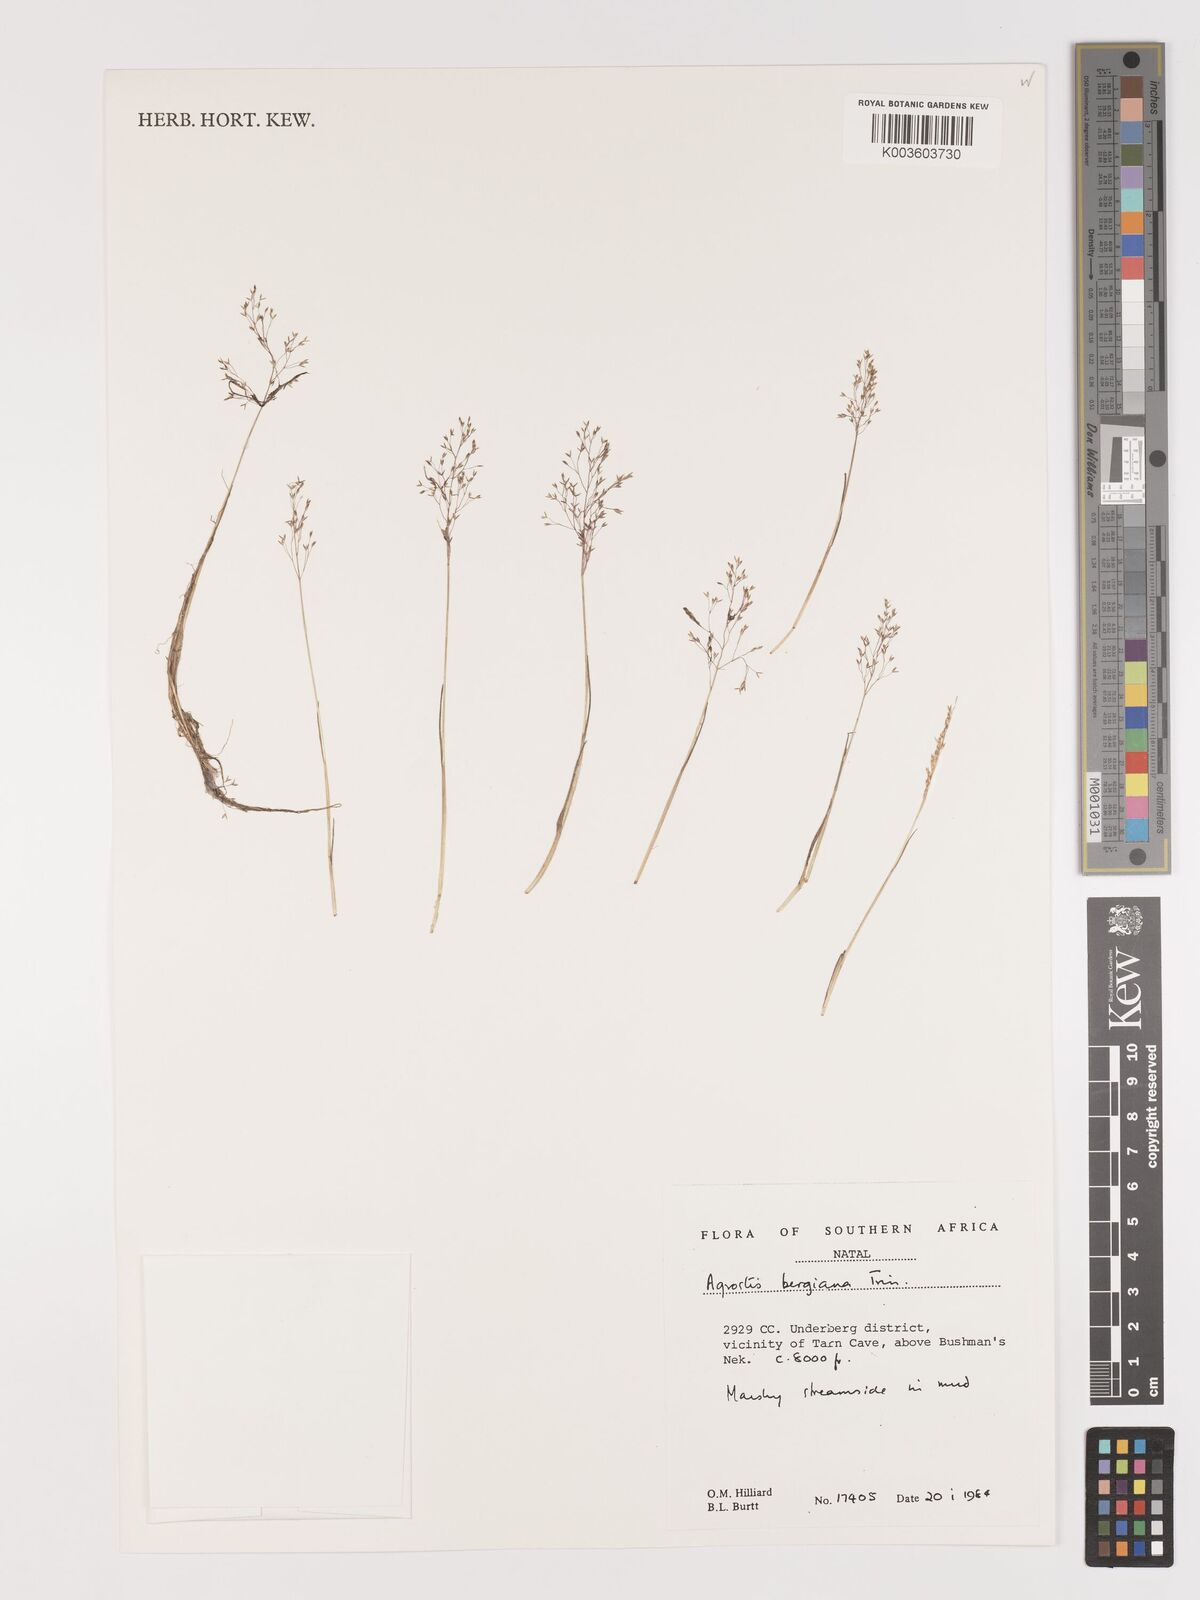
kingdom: Plantae
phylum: Tracheophyta
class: Liliopsida
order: Poales
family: Poaceae
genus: Agrostis
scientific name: Agrostis bergiana
